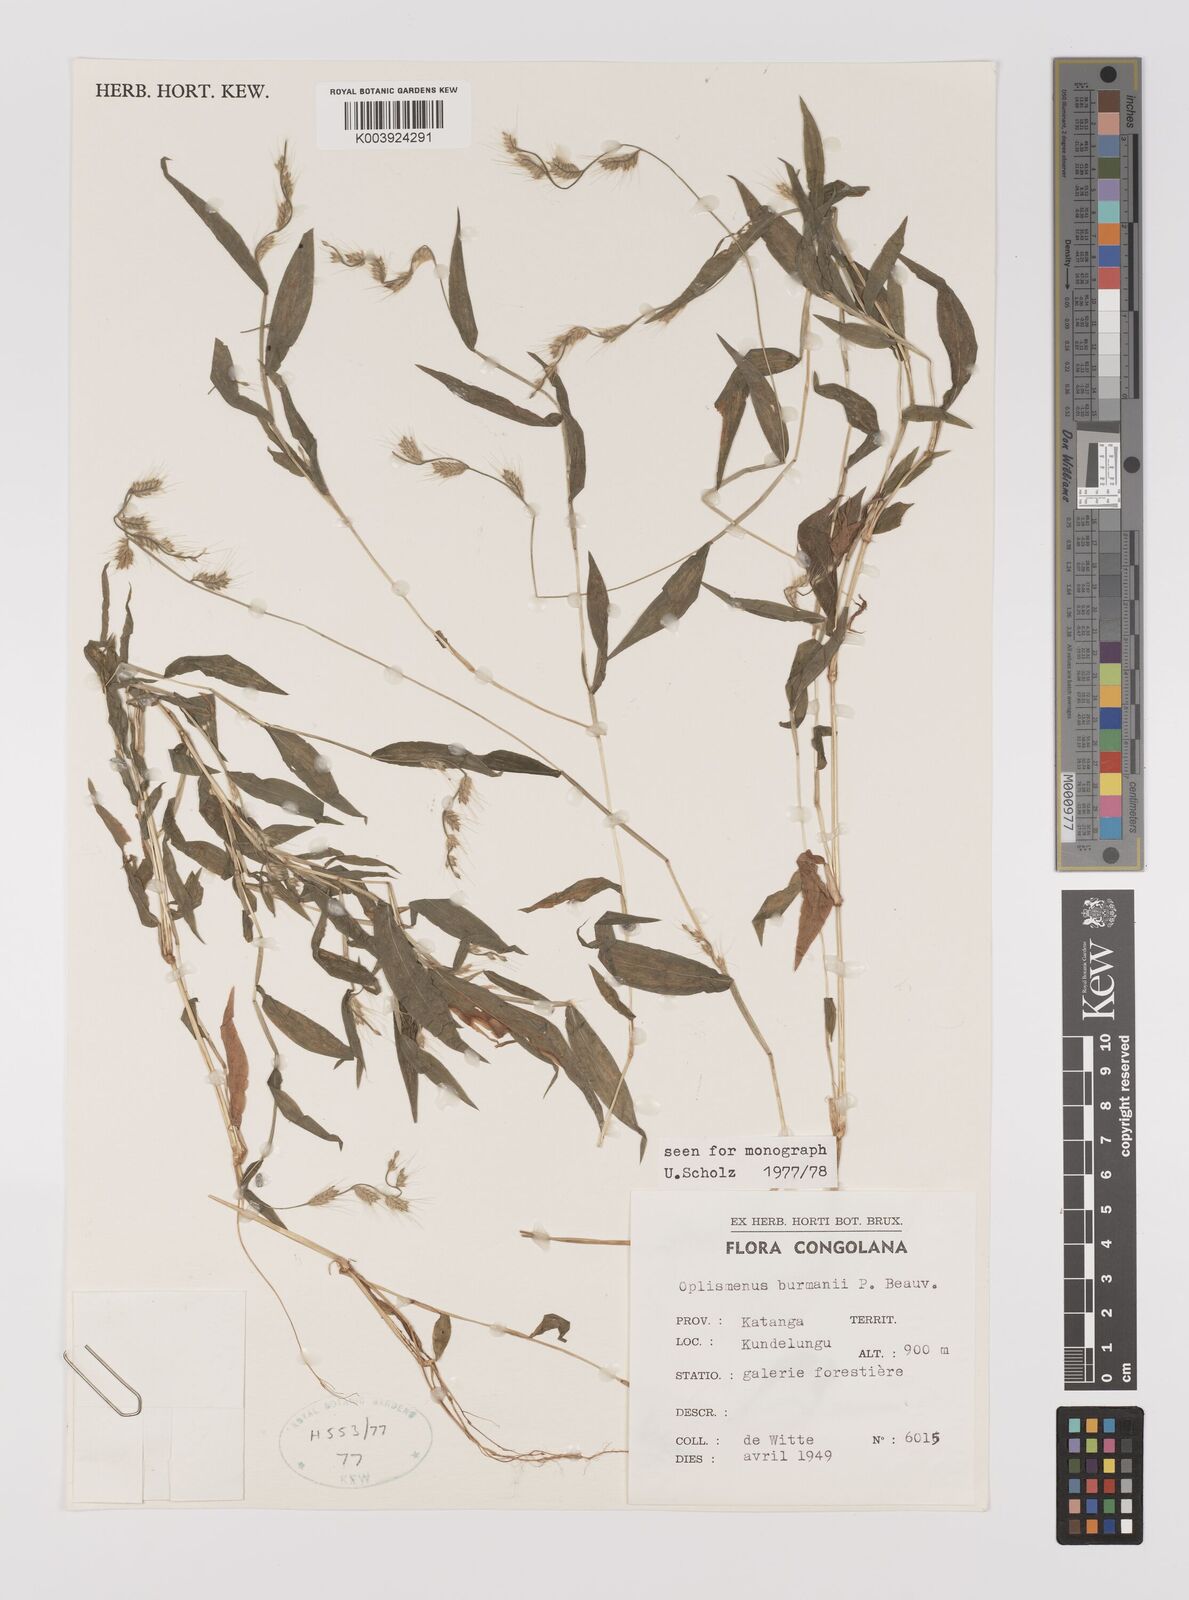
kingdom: Plantae
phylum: Tracheophyta
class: Liliopsida
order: Poales
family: Poaceae
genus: Oplismenus
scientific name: Oplismenus burmanni
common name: Burmann's basketgrass
